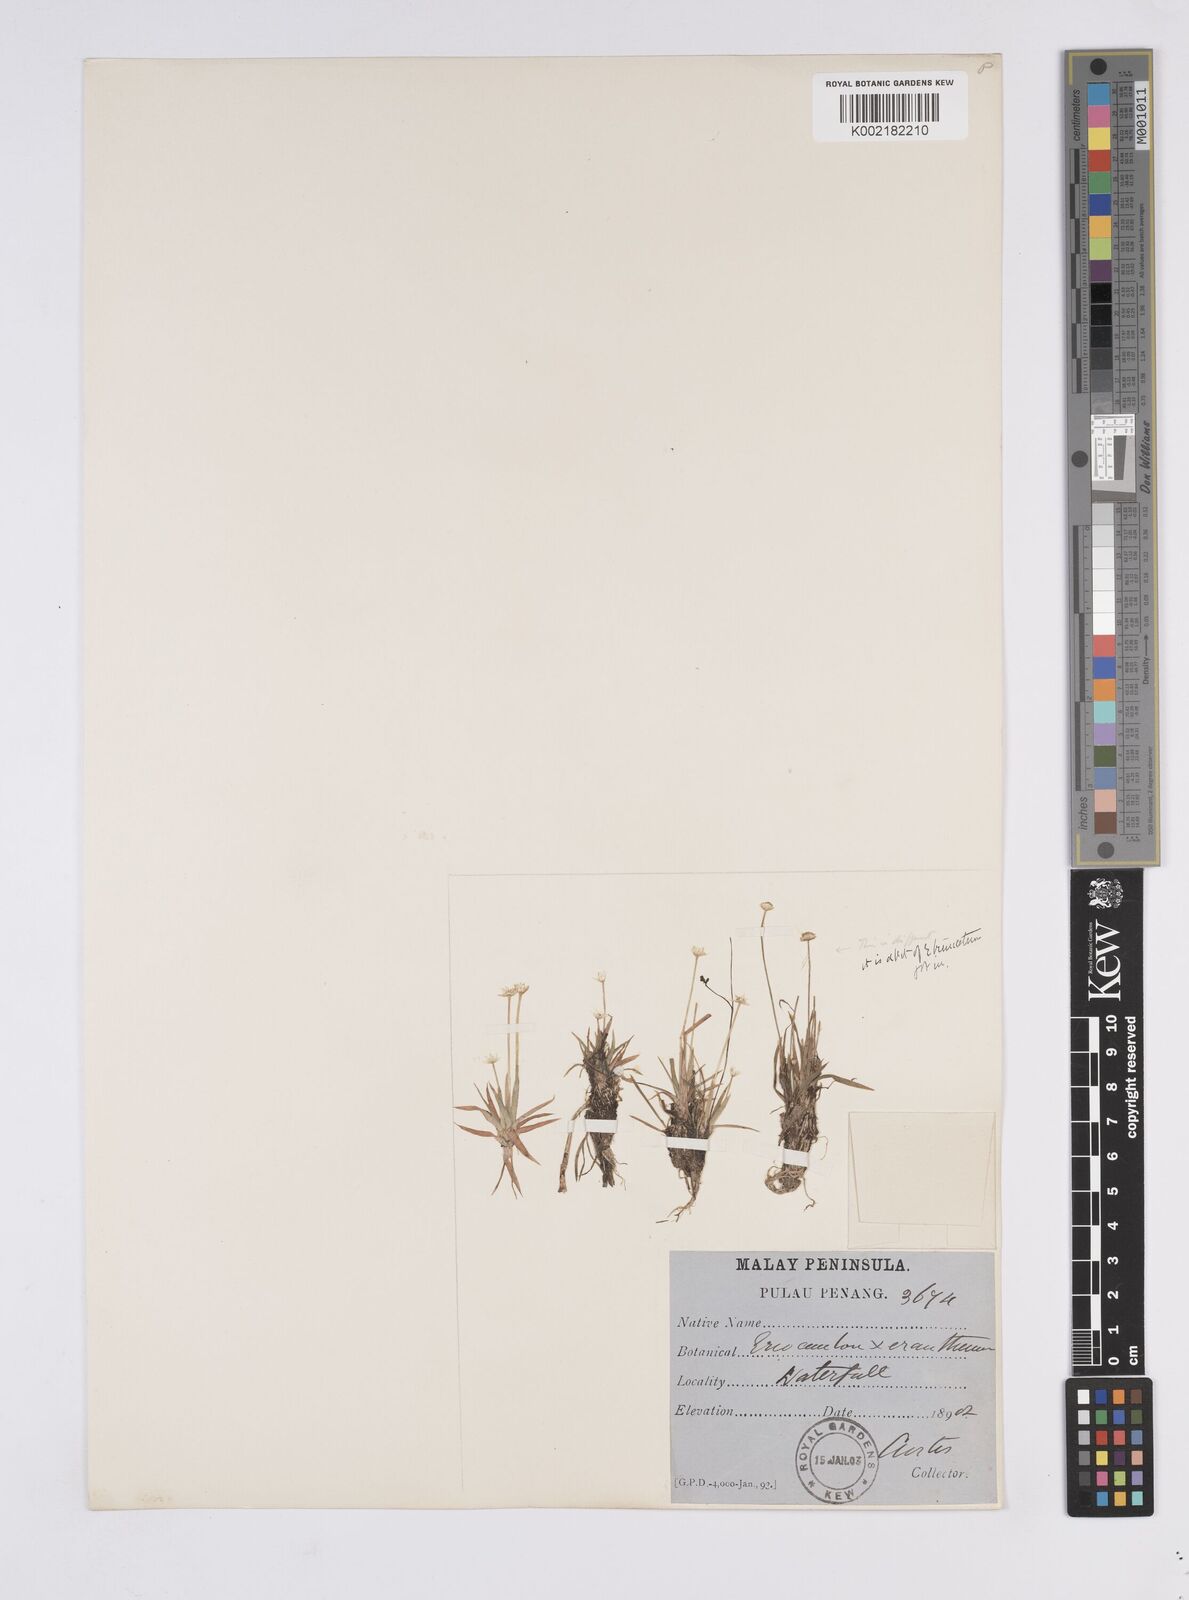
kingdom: Plantae
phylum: Tracheophyta
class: Liliopsida
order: Poales
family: Eriocaulaceae
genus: Eriocaulon
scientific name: Eriocaulon xeranthemum
